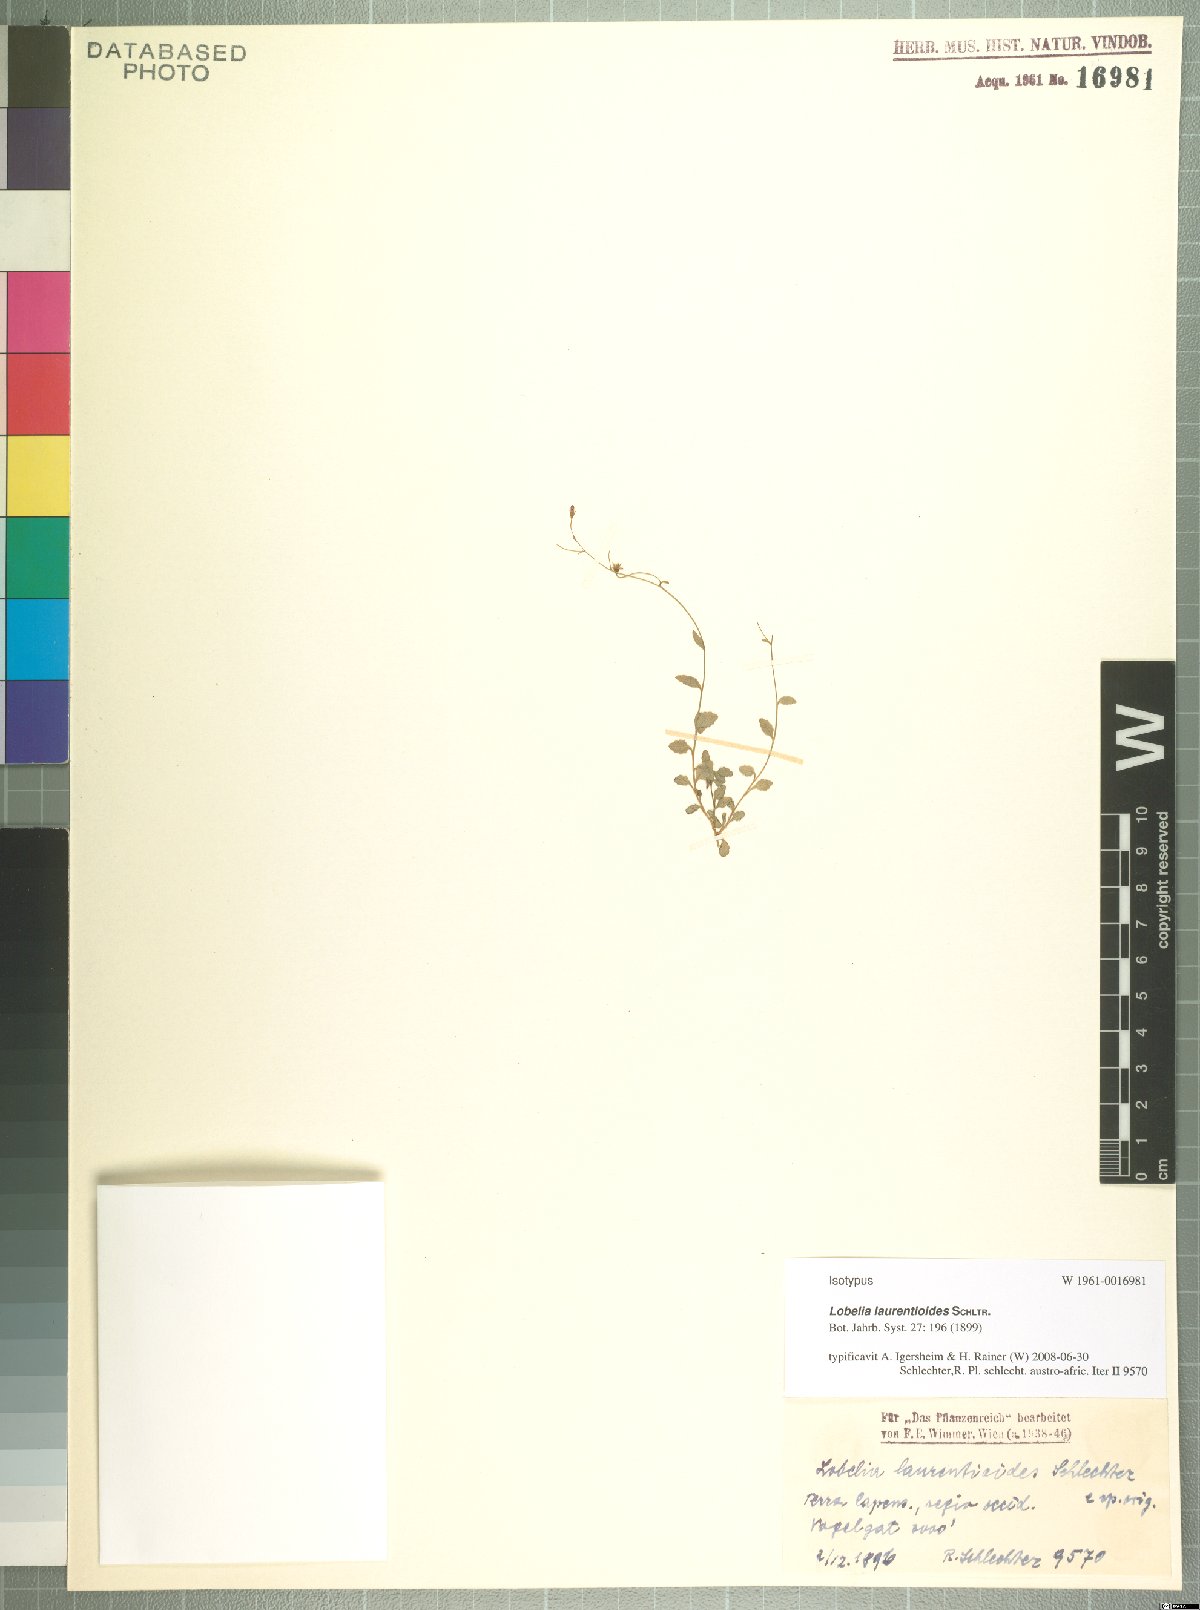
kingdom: Plantae
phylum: Tracheophyta
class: Magnoliopsida
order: Asterales
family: Campanulaceae
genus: Lobelia
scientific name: Lobelia laurentioides
